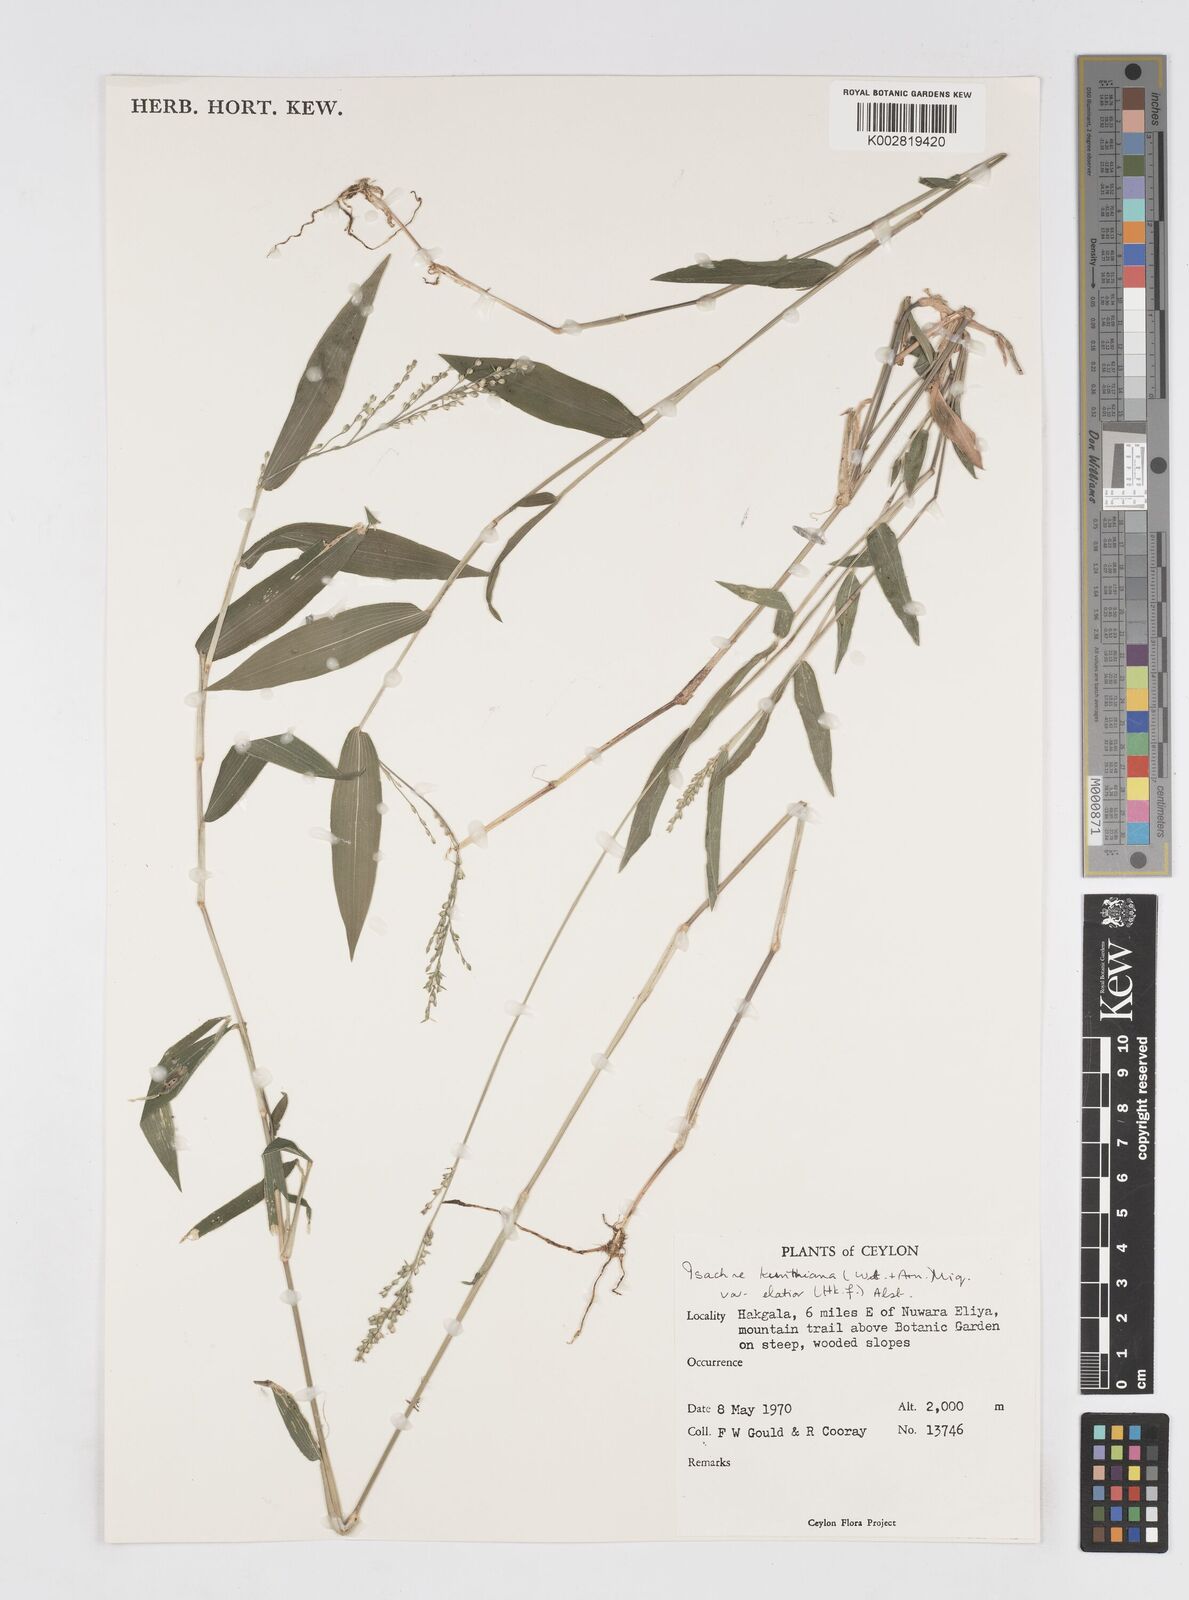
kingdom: Plantae
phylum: Tracheophyta
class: Liliopsida
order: Poales
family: Poaceae
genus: Isachne
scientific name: Isachne kunthiana
